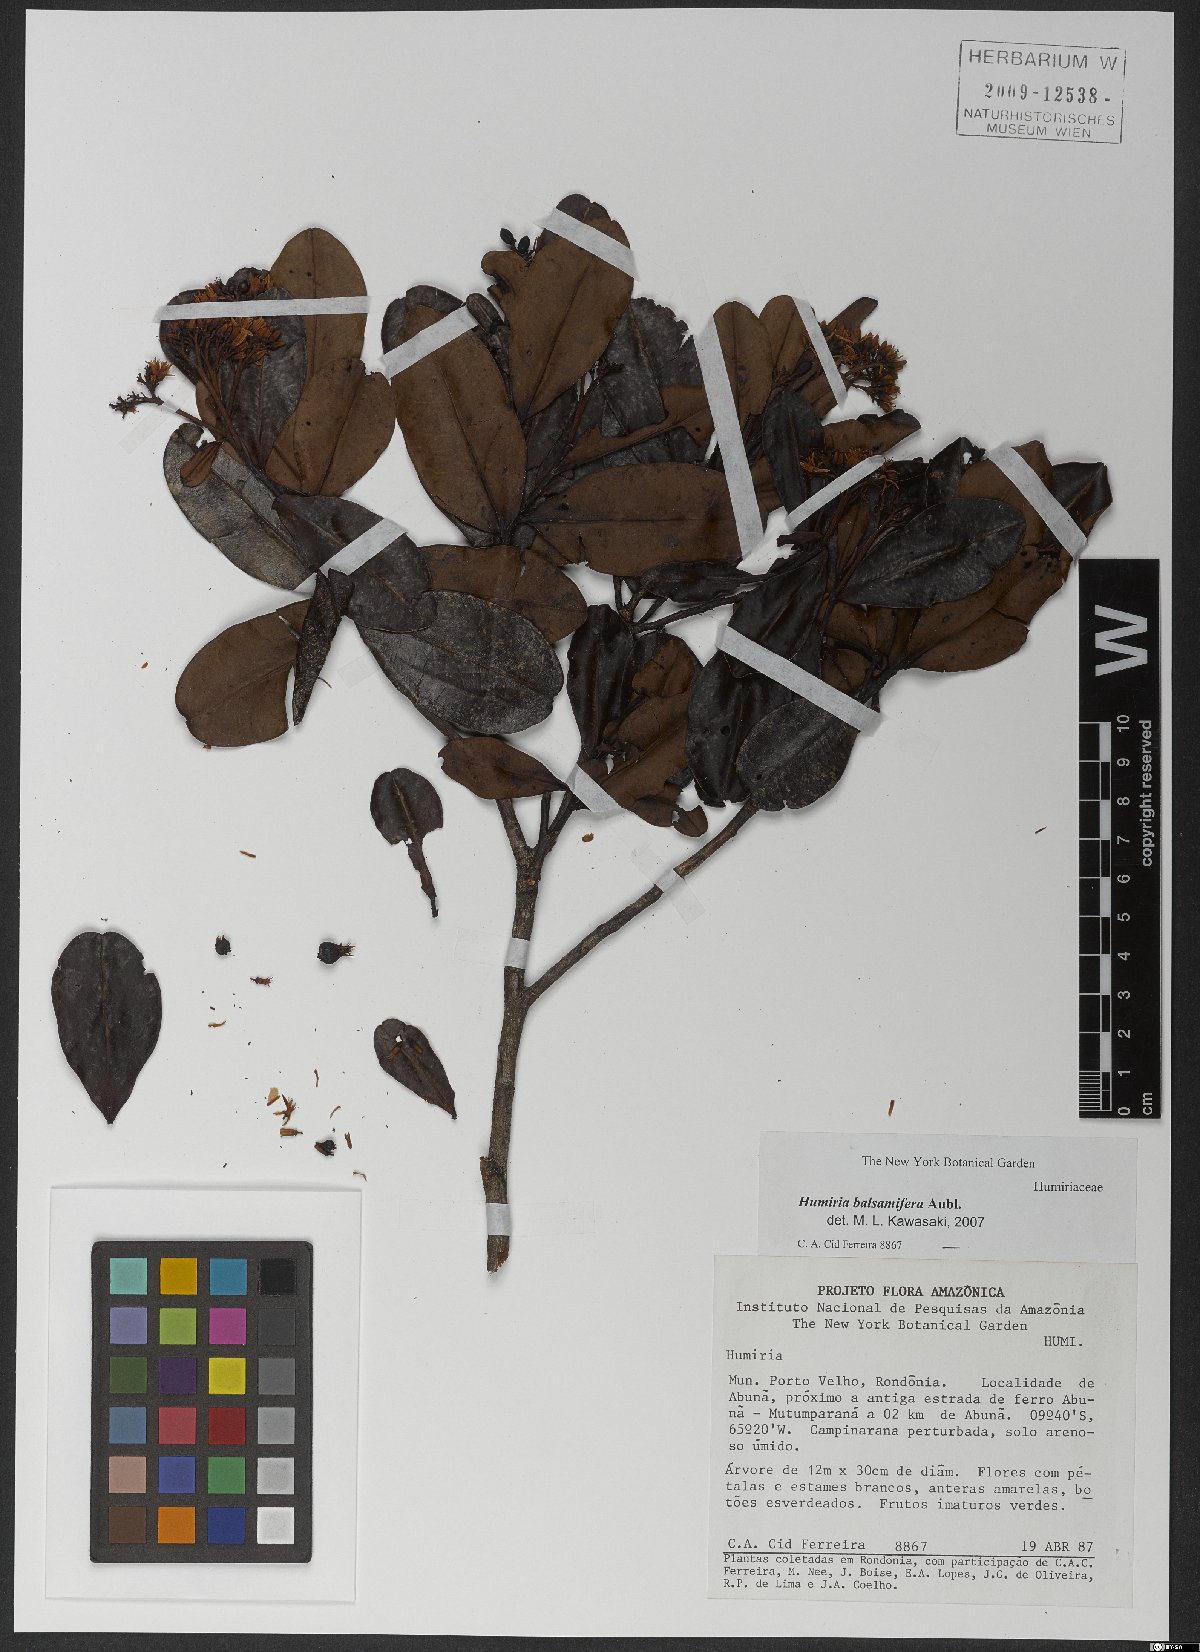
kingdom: Plantae
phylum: Tracheophyta
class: Magnoliopsida
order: Malpighiales
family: Humiriaceae
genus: Humiria
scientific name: Humiria balsamifera
